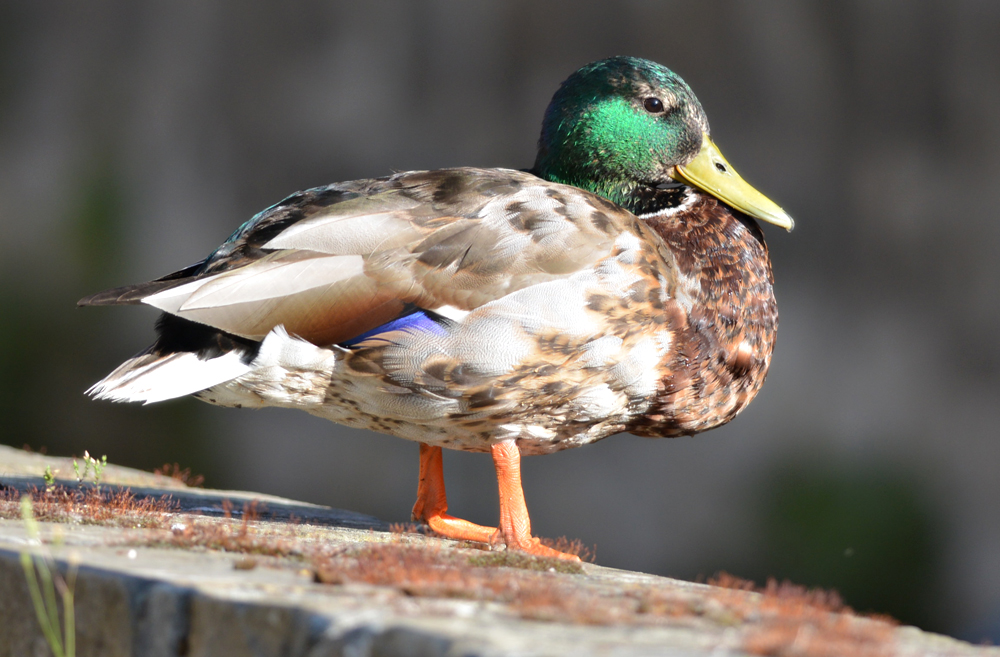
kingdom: Animalia
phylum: Chordata
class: Aves
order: Anseriformes
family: Anatidae
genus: Anas
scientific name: Anas platyrhynchos
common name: Mallard
